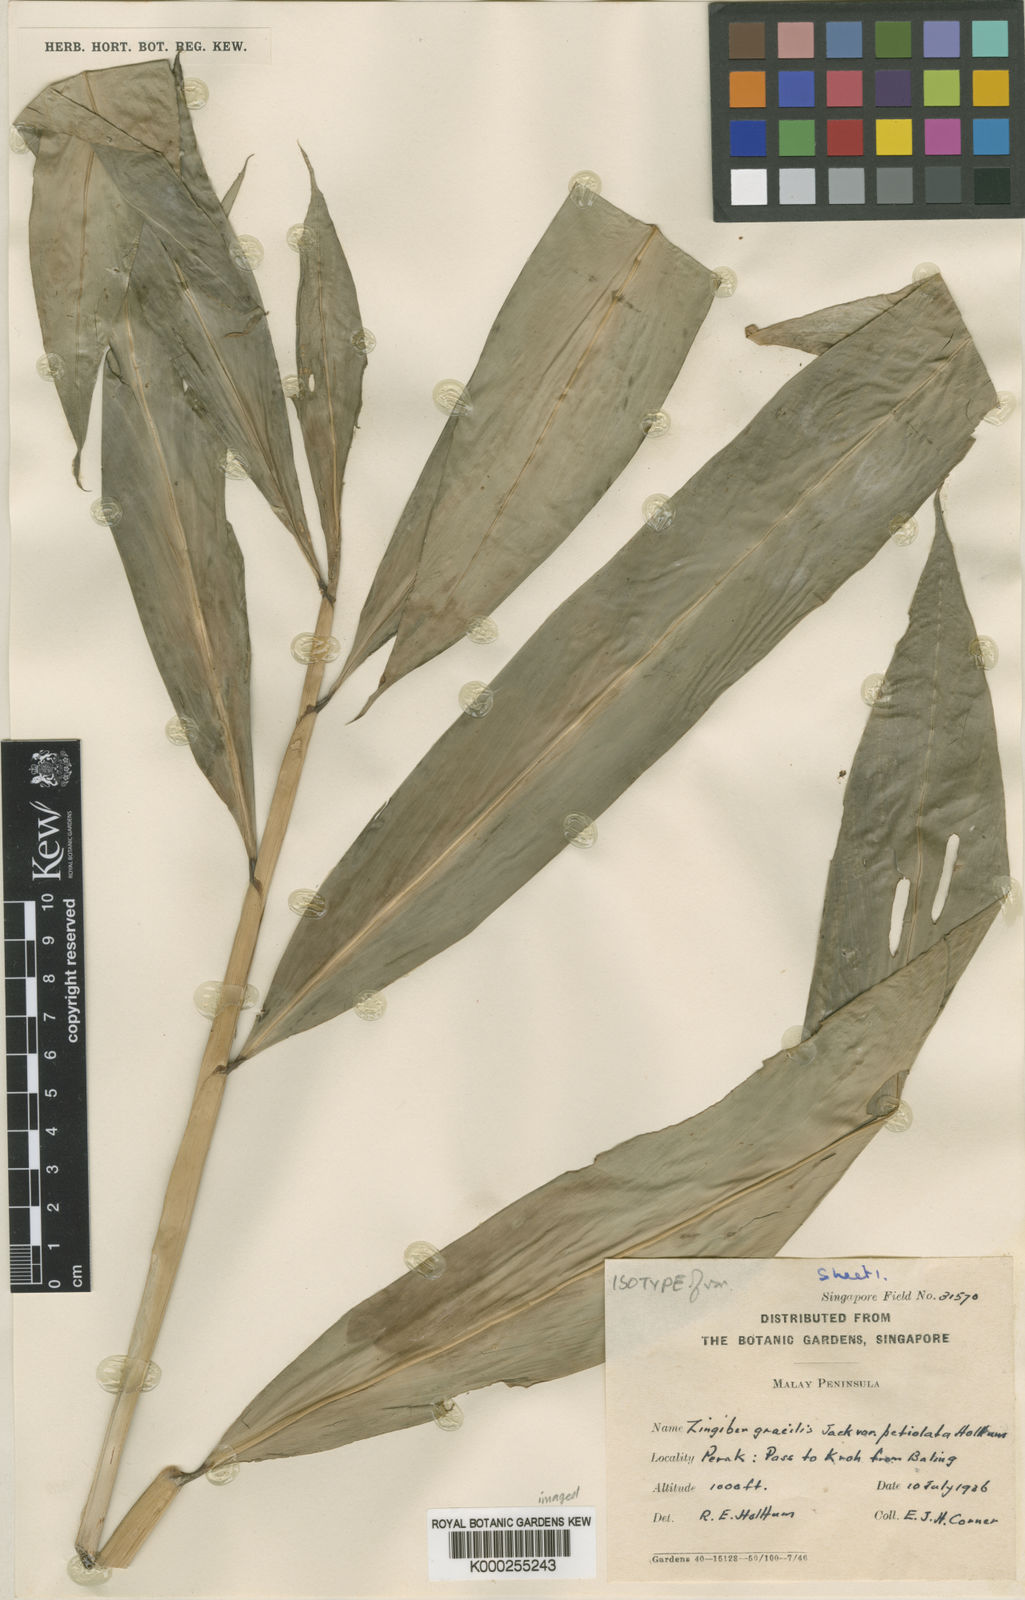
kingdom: Plantae
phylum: Tracheophyta
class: Liliopsida
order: Zingiberales
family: Zingiberaceae
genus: Zingiber
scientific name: Zingiber gracile
